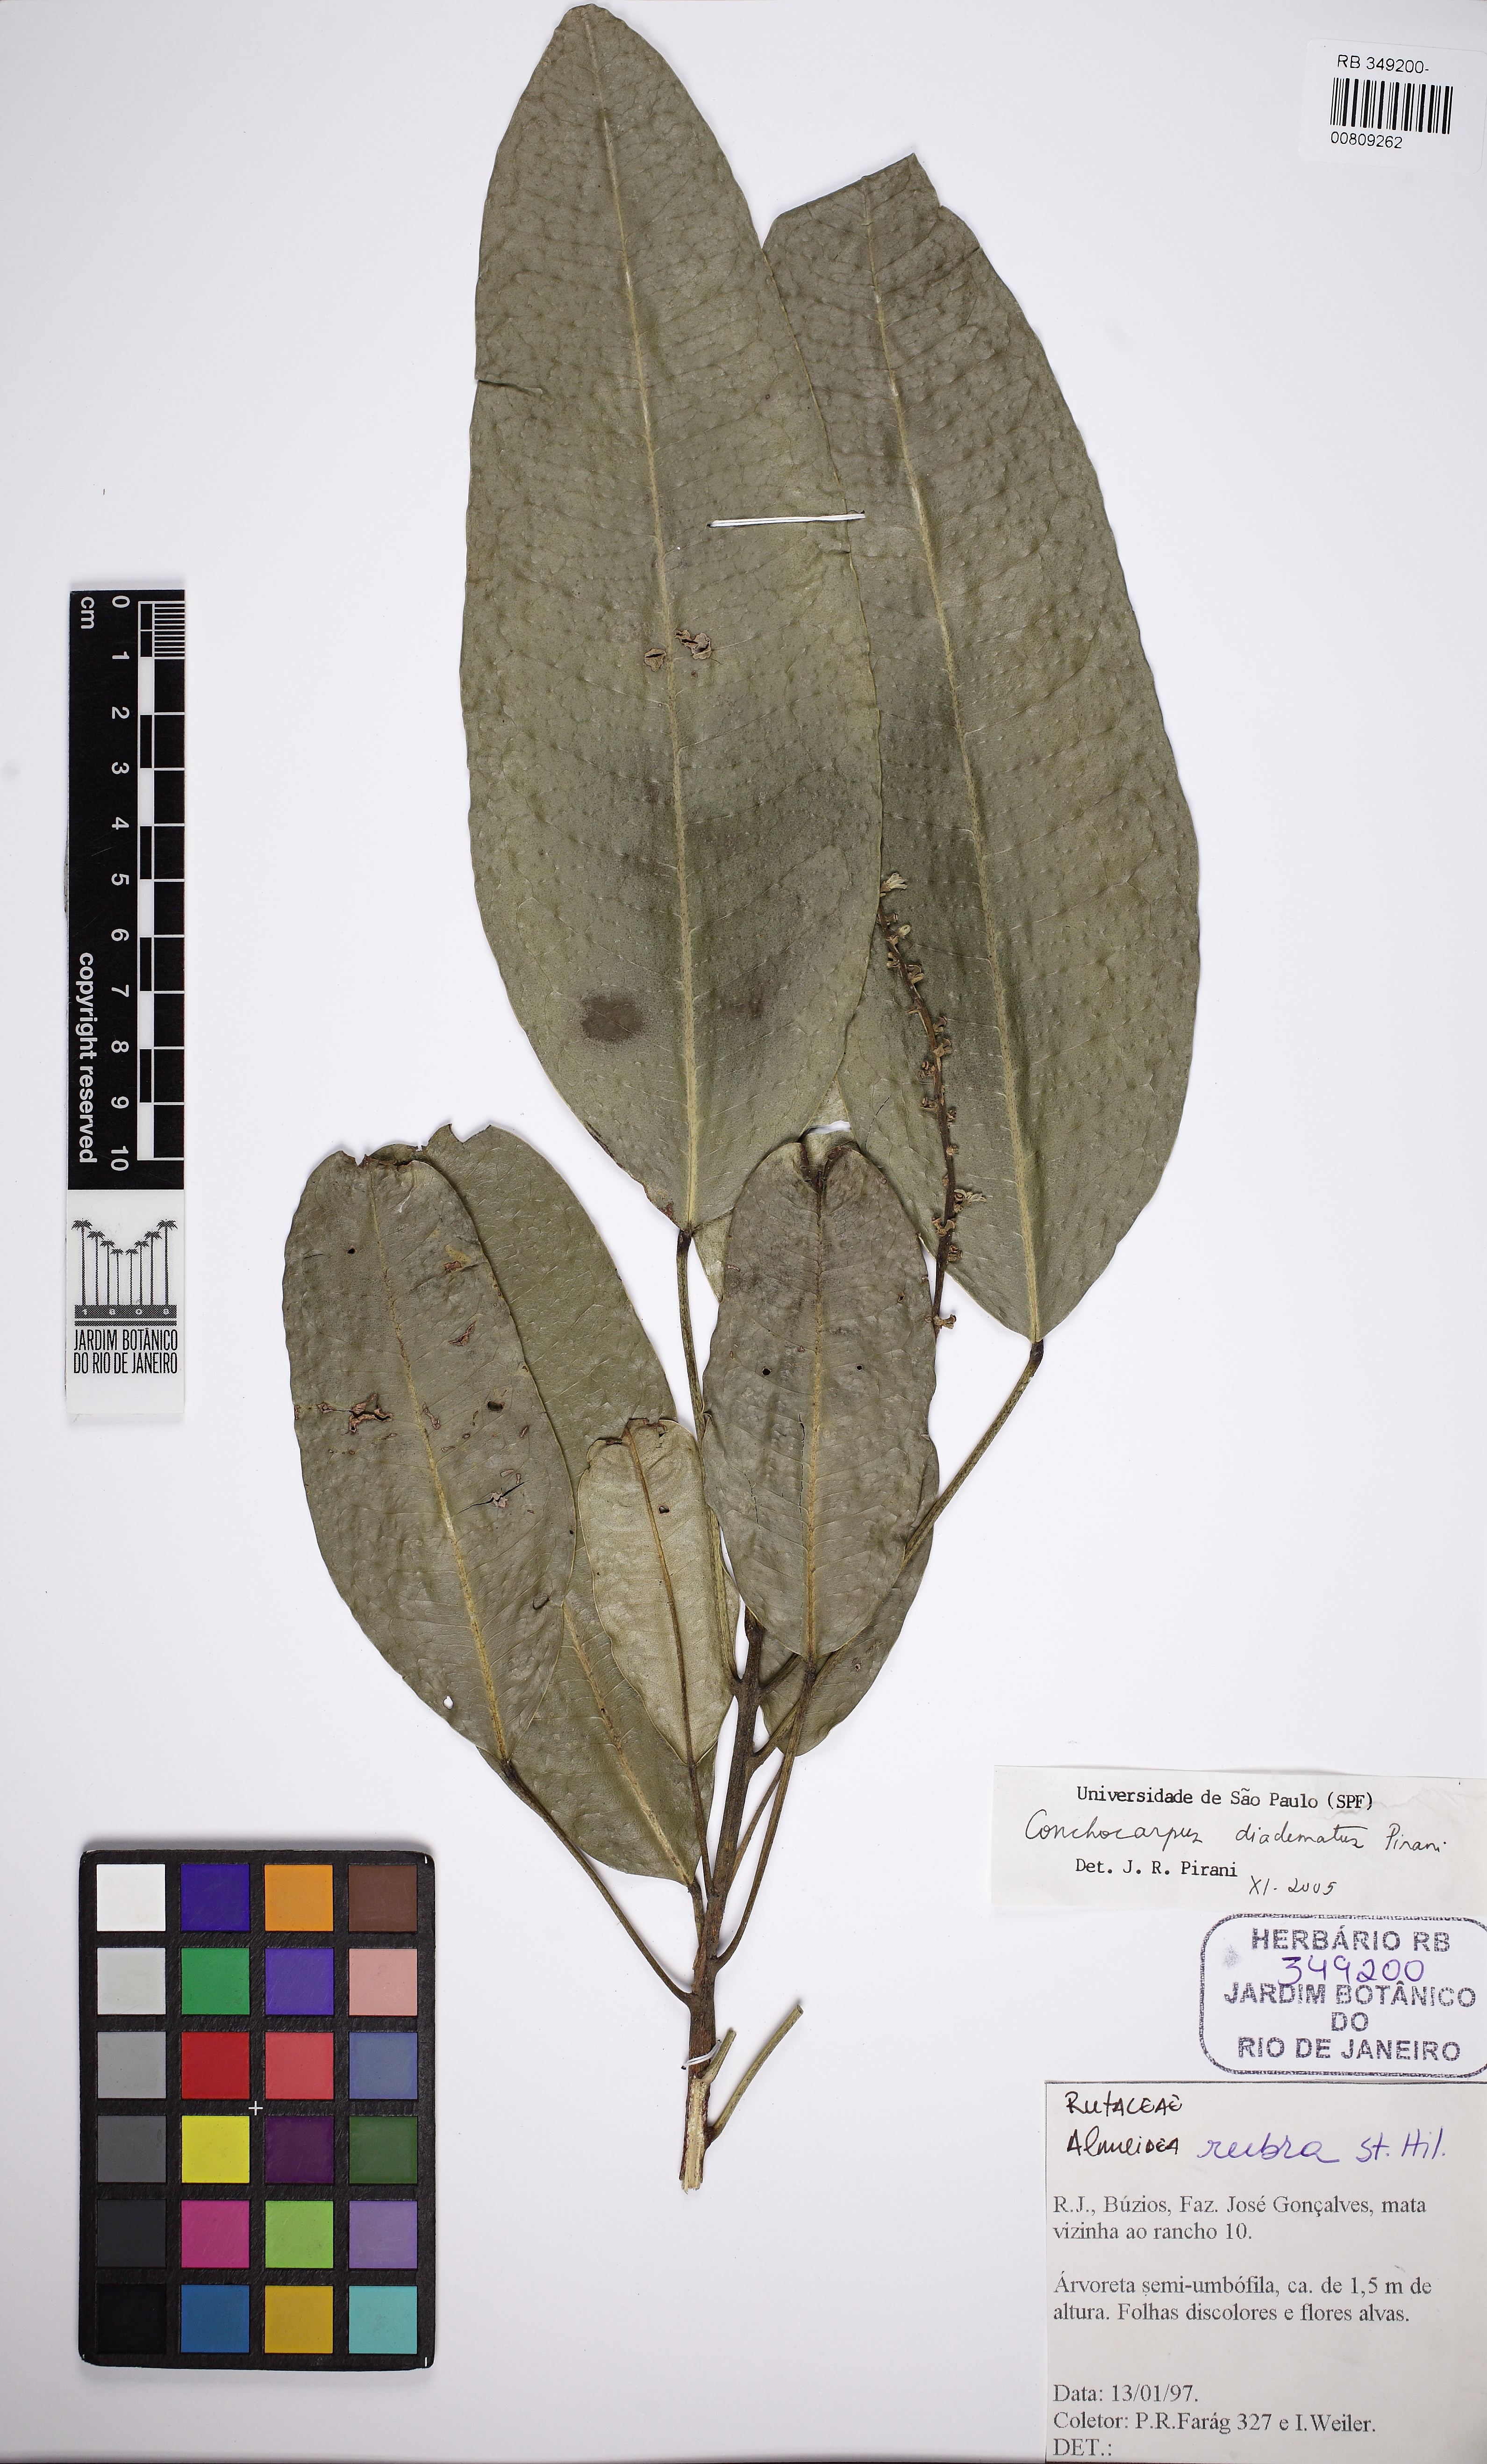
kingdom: Plantae
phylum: Tracheophyta
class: Magnoliopsida
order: Sapindales
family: Rutaceae
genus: Conchocarpus
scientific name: Conchocarpus diadematus
